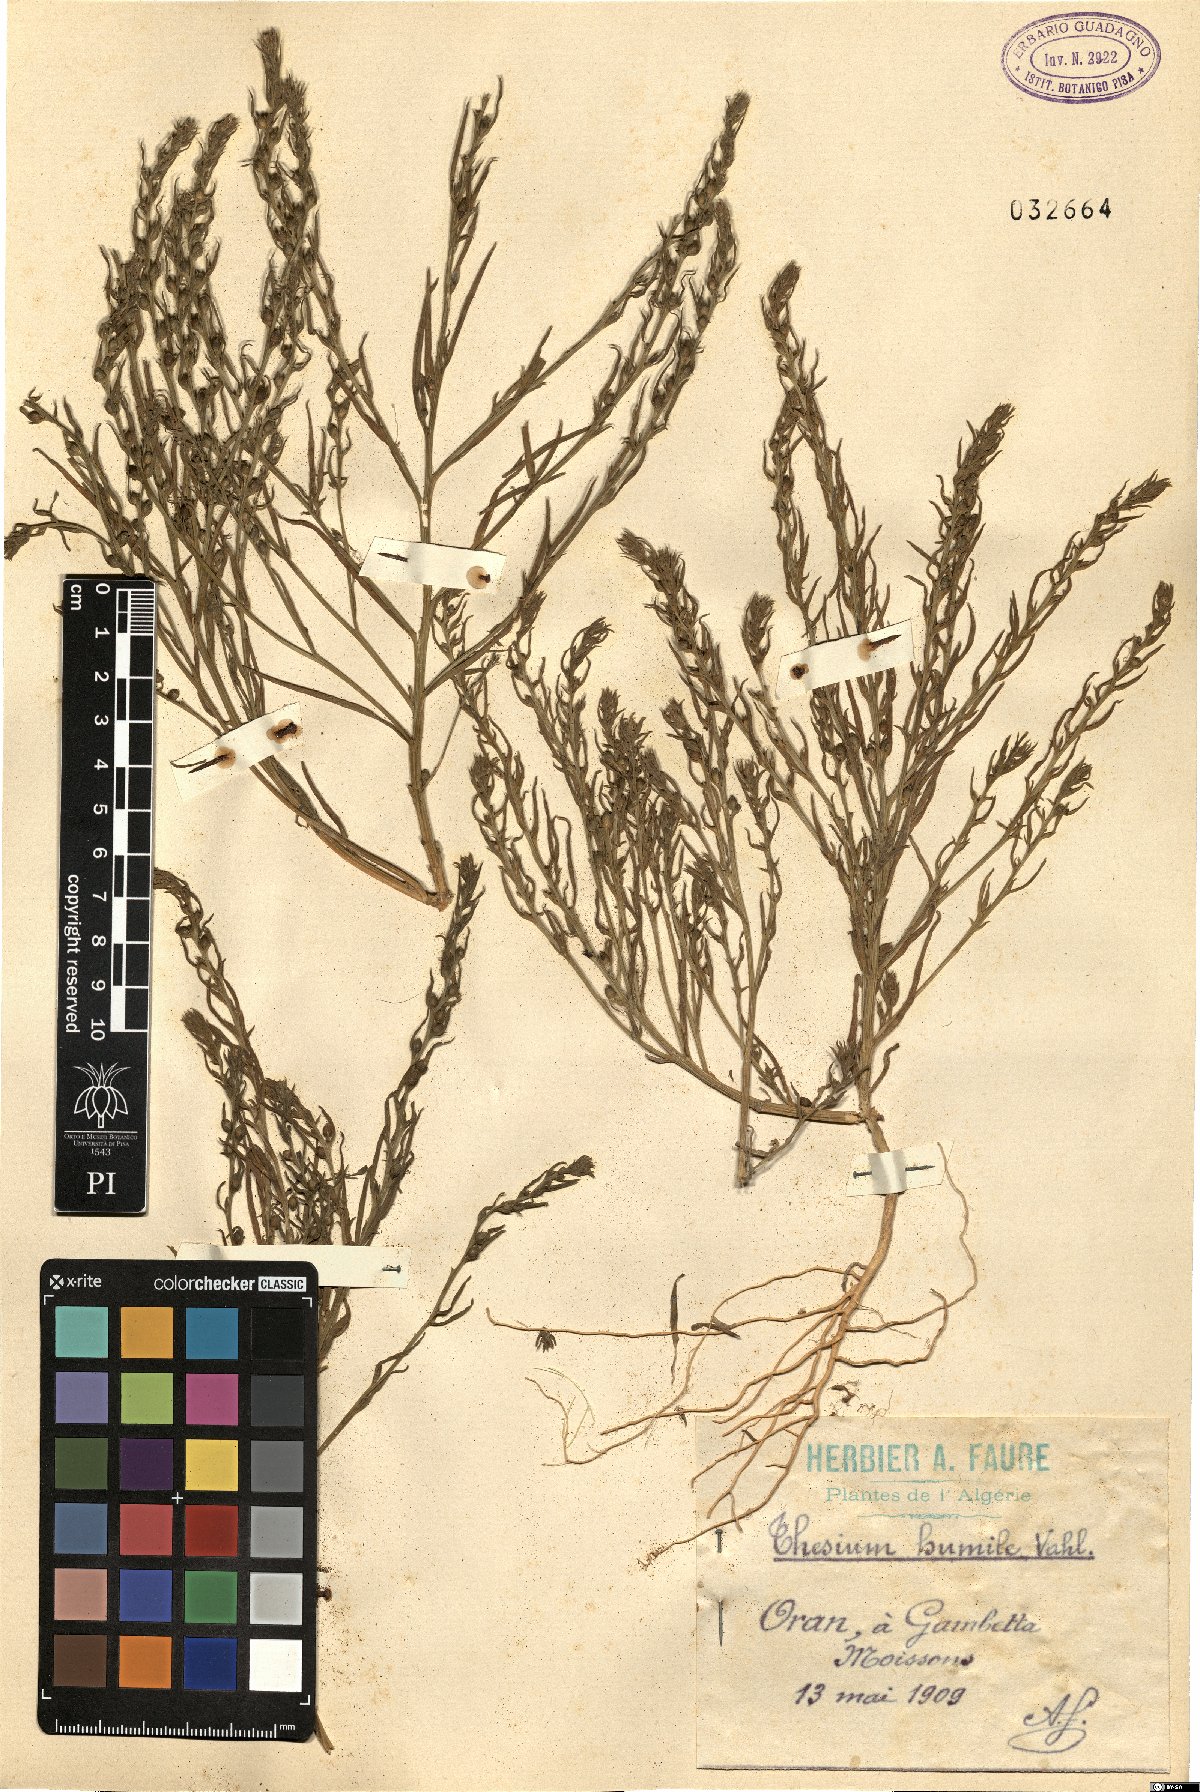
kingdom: Plantae
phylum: Tracheophyta
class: Magnoliopsida
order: Santalales
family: Thesiaceae
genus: Thesium
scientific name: Thesium humile
